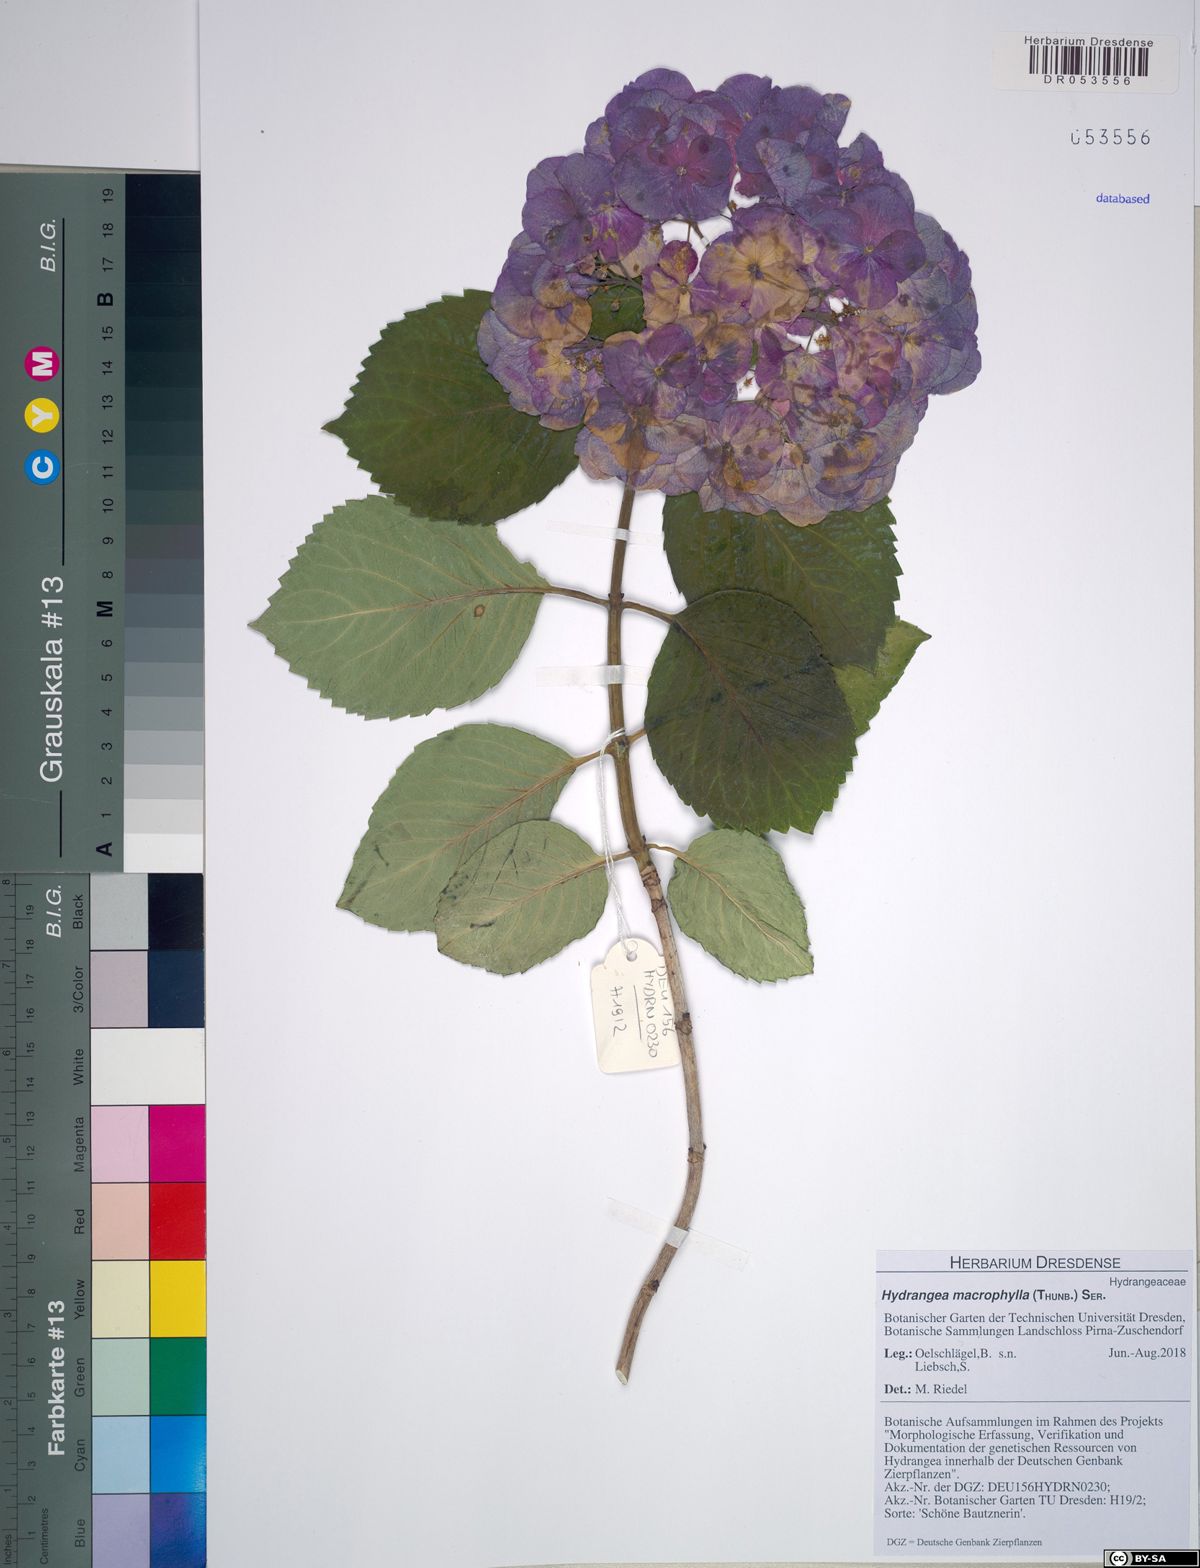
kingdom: Plantae
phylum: Tracheophyta
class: Magnoliopsida
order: Cornales
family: Hydrangeaceae
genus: Hydrangea
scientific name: Hydrangea macrophylla
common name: Hydrangea
